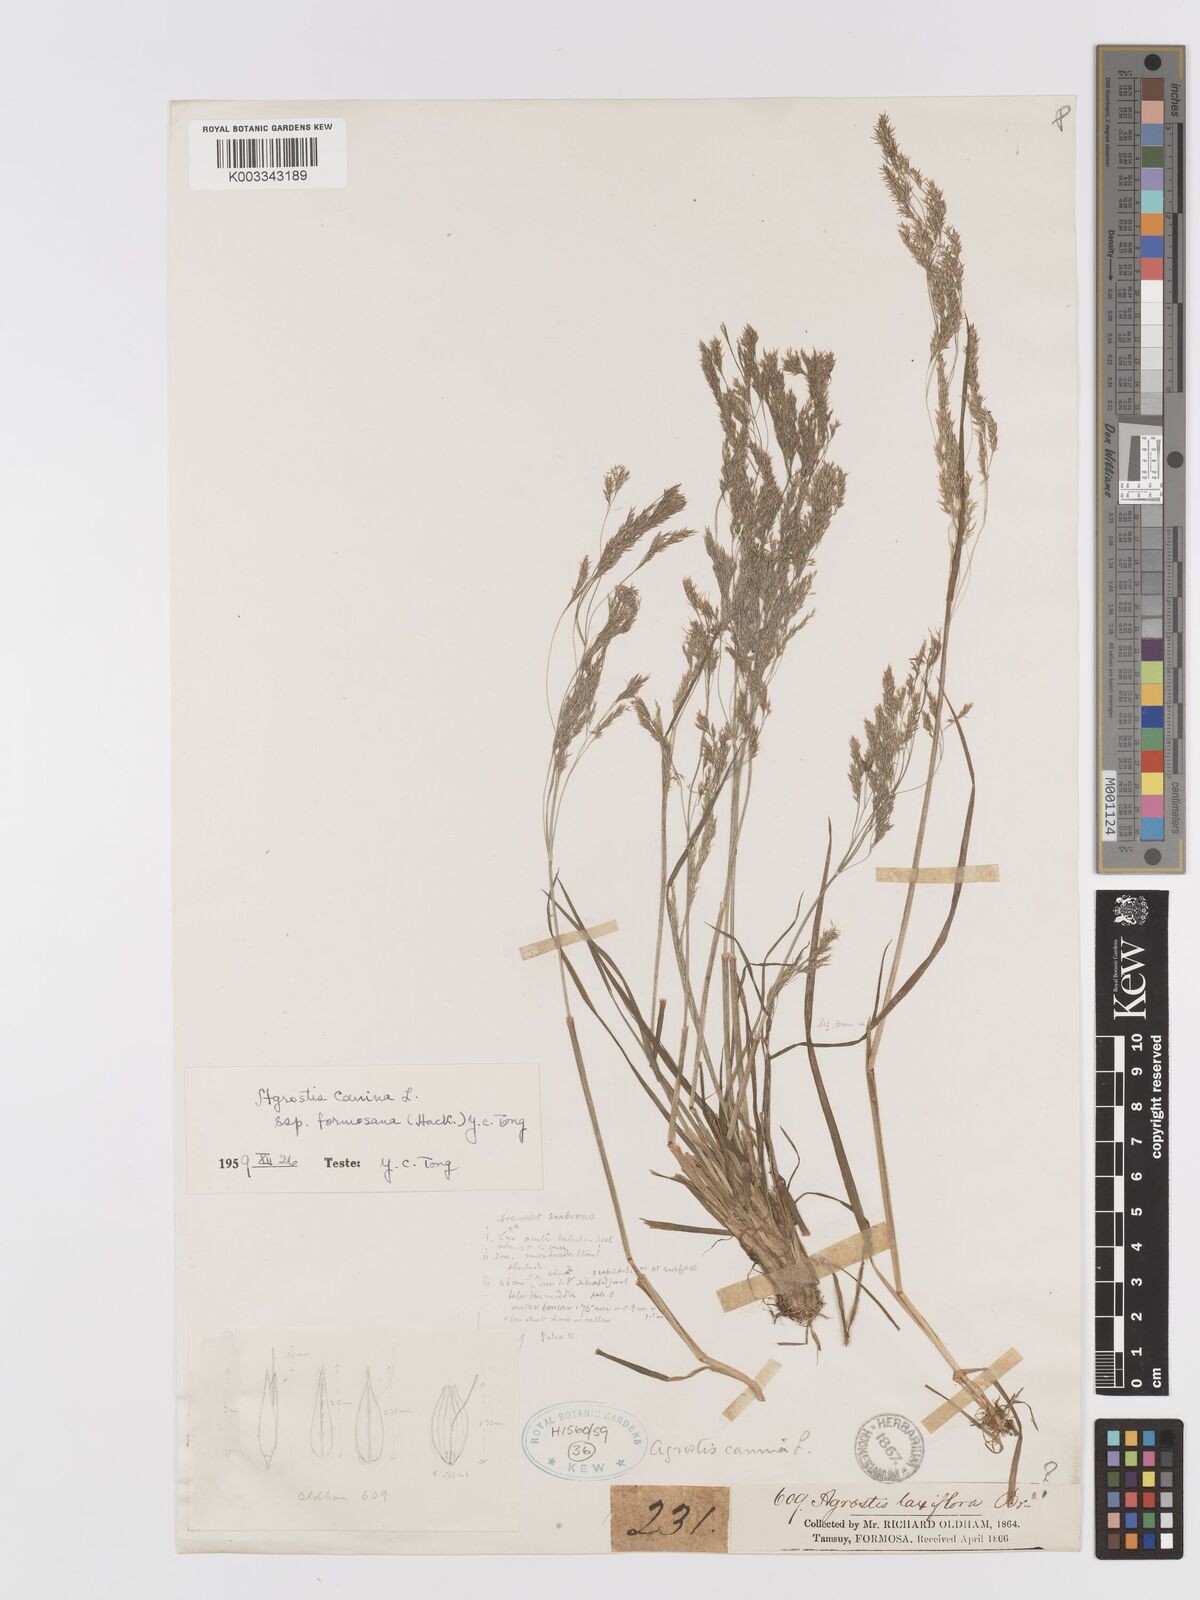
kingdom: Plantae
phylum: Tracheophyta
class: Liliopsida
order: Poales
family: Poaceae
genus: Agrostis
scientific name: Agrostis infirma
